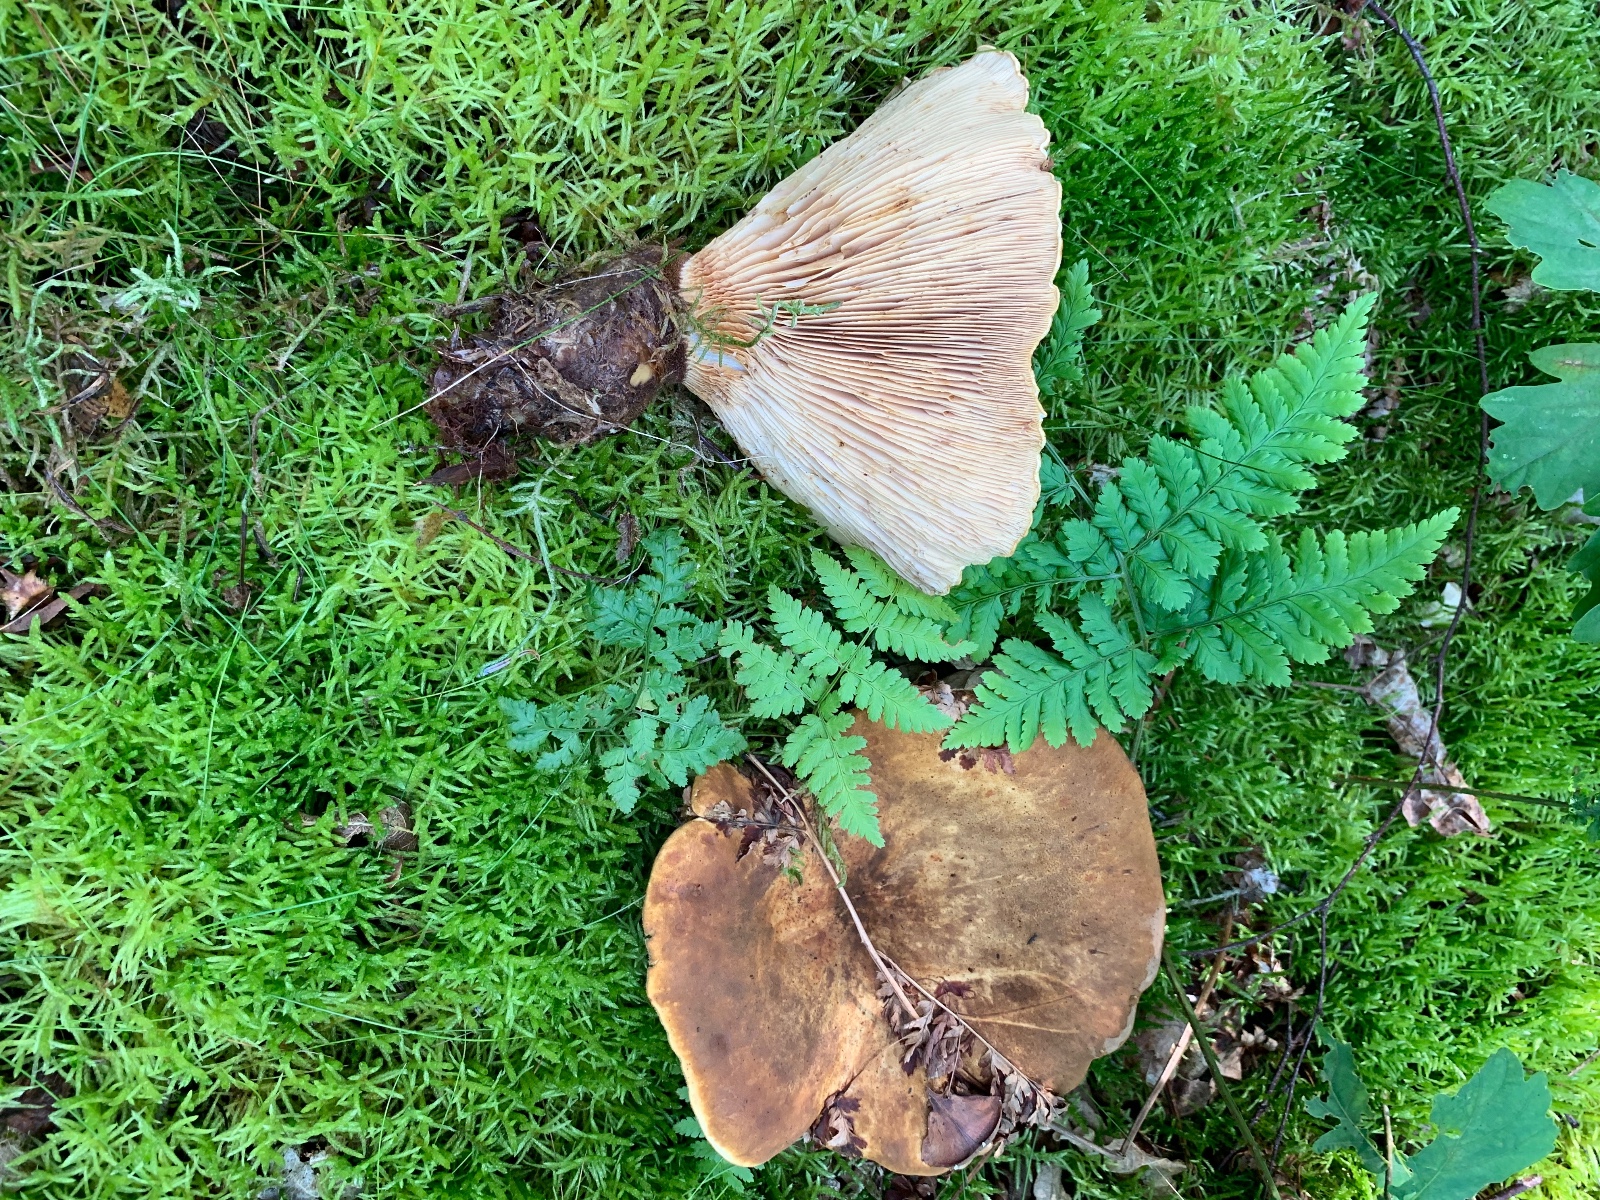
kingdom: Fungi
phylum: Basidiomycota
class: Agaricomycetes
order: Boletales
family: Tapinellaceae
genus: Tapinella
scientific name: Tapinella atrotomentosa
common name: sortfiltet viftesvamp
